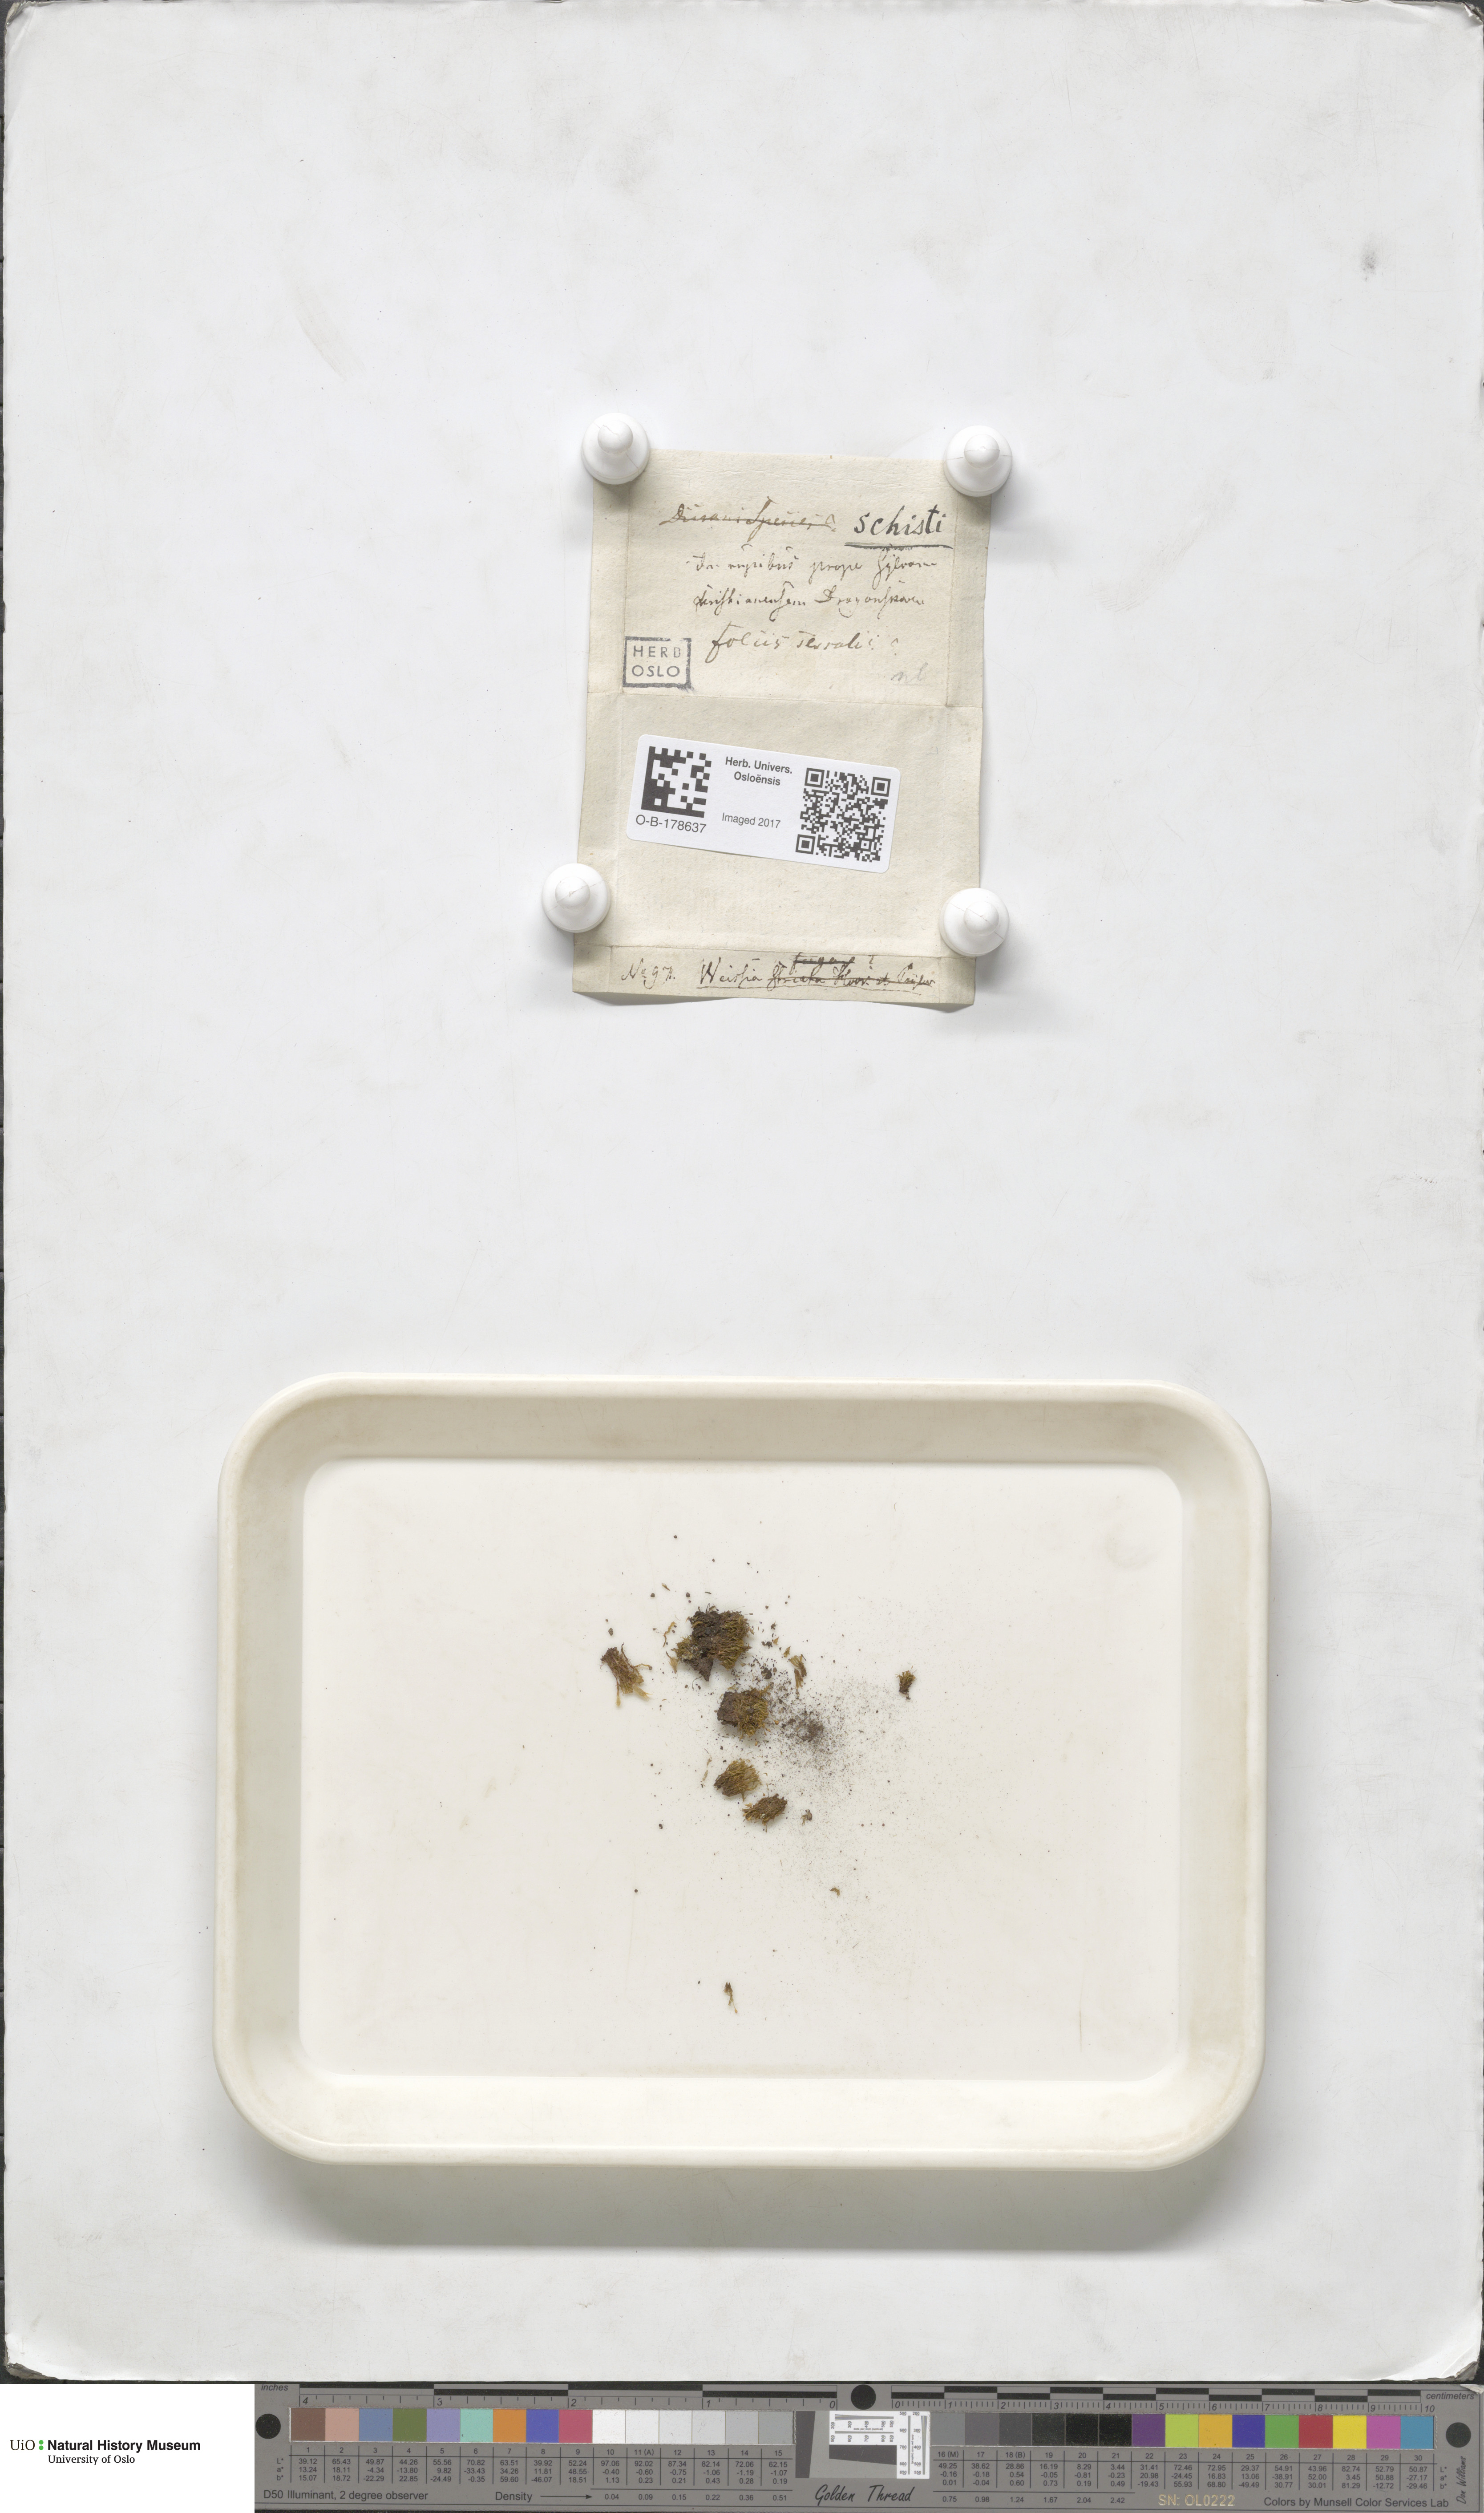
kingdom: Plantae
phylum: Bryophyta
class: Bryopsida
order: Dicranales
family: Rhabdoweisiaceae
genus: Cnestrum
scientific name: Cnestrum schisti
